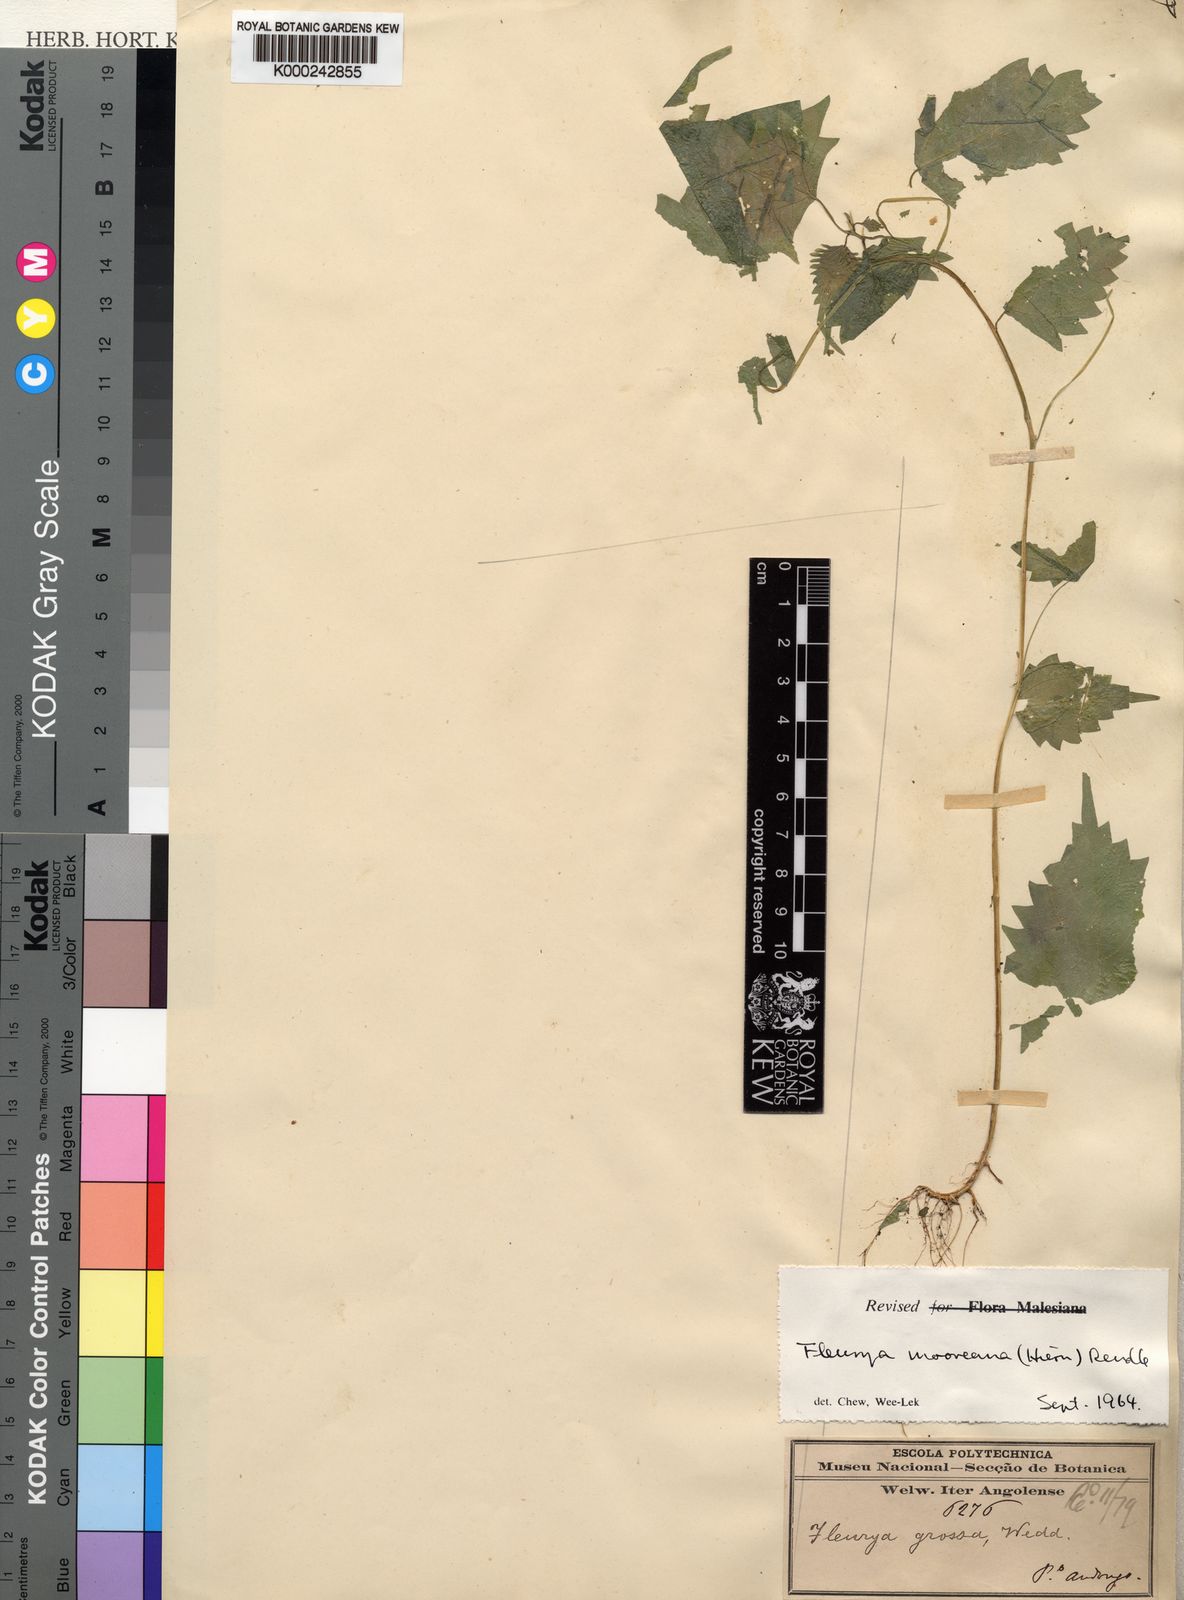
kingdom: Plantae
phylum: Tracheophyta
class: Magnoliopsida
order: Rosales
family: Urticaceae
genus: Laportea
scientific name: Laportea mooreana
